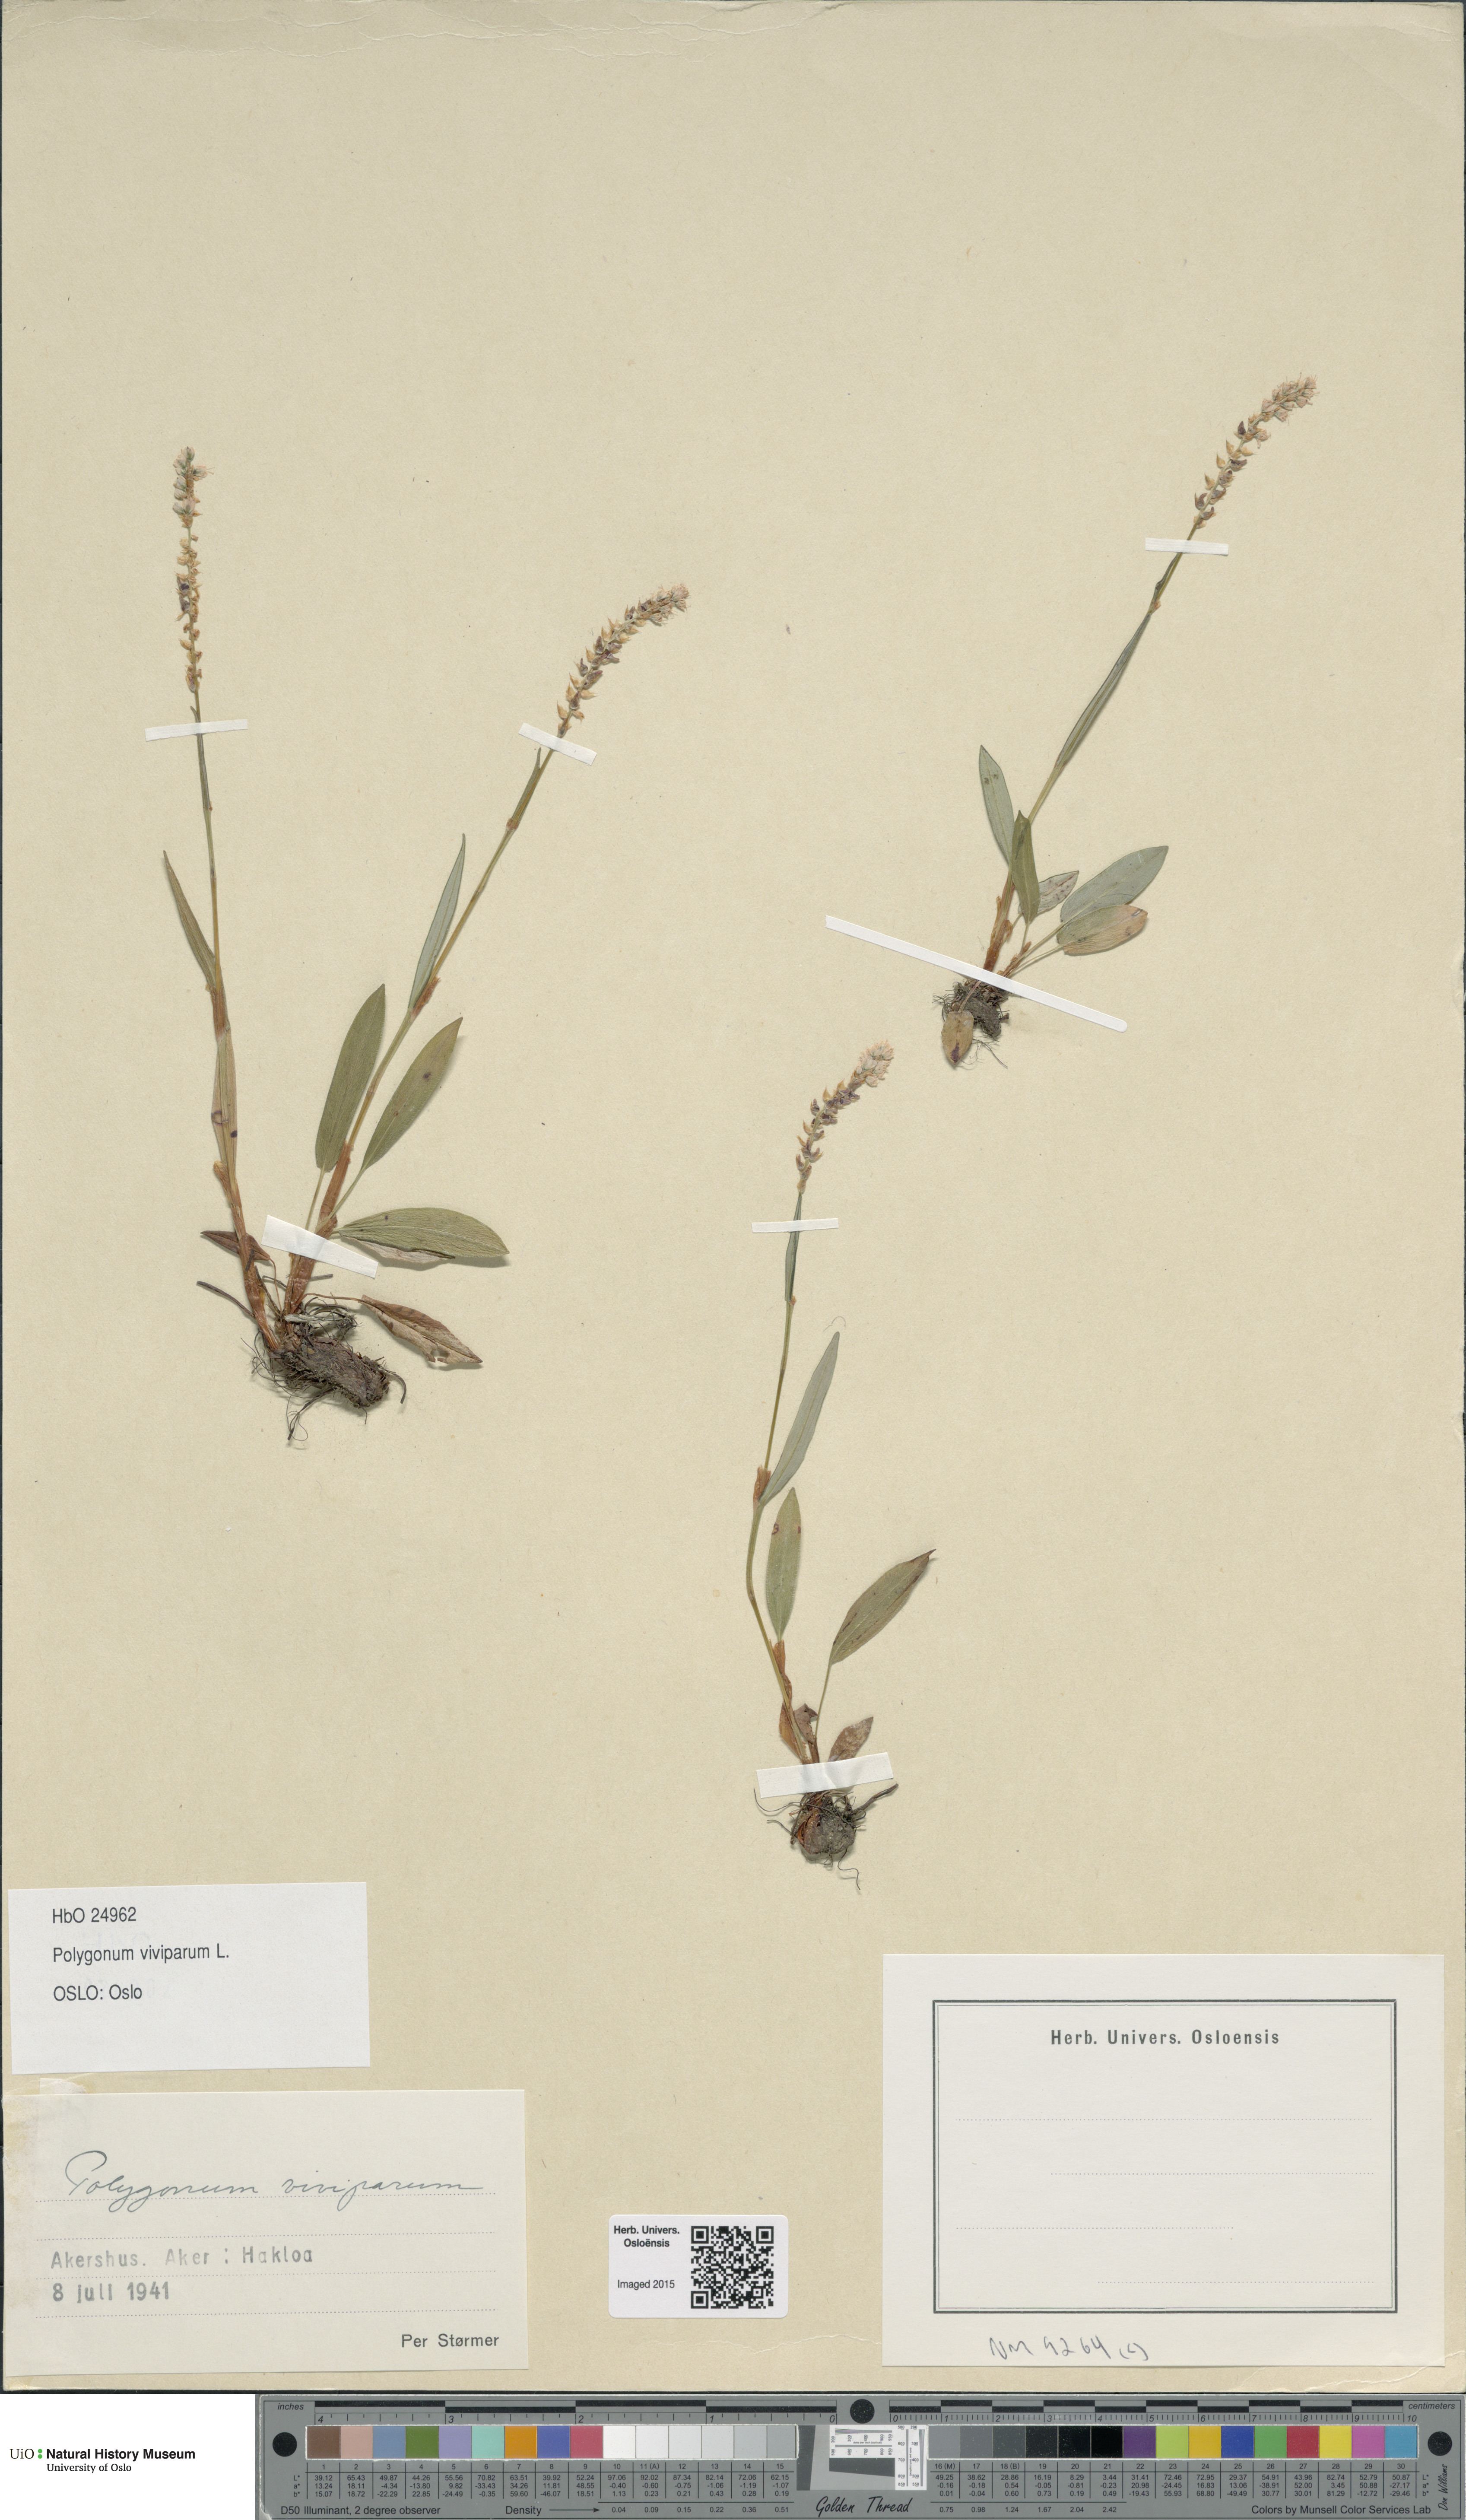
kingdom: Plantae
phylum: Tracheophyta
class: Magnoliopsida
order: Caryophyllales
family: Polygonaceae
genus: Bistorta
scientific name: Bistorta vivipara
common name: Alpine bistort
